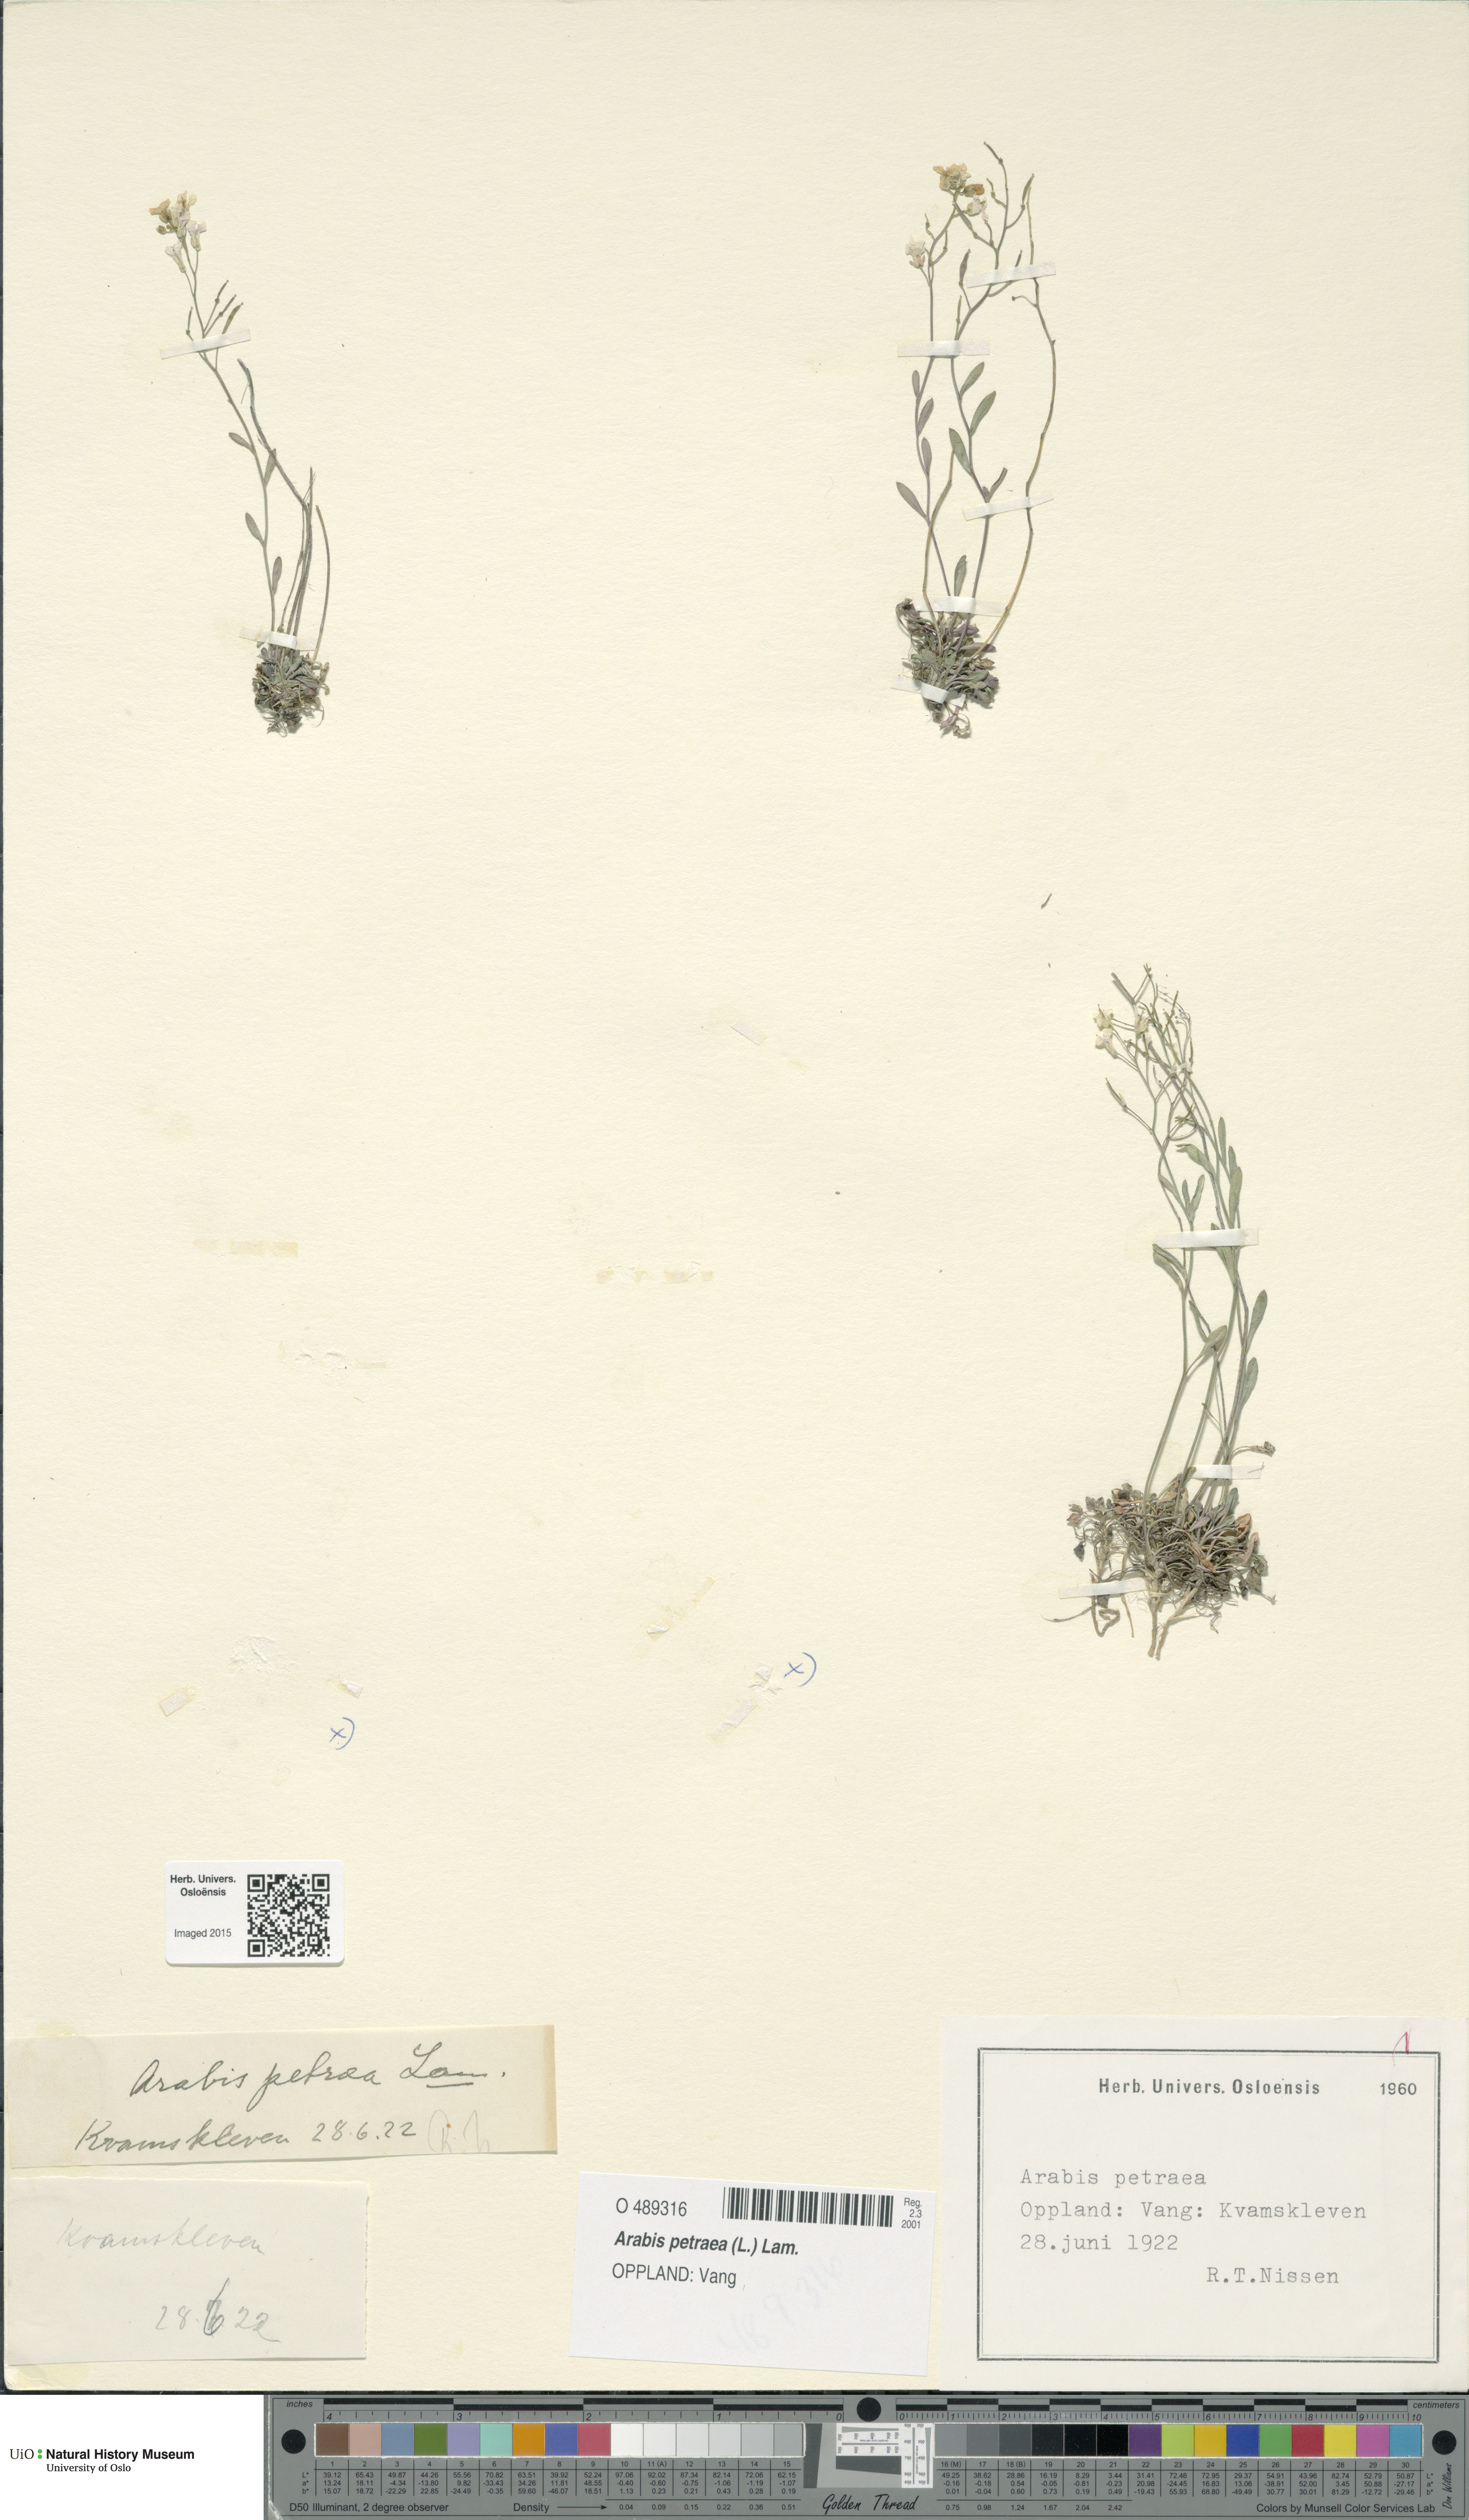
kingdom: Plantae
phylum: Tracheophyta
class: Magnoliopsida
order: Brassicales
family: Brassicaceae
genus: Arabidopsis
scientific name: Arabidopsis petraea
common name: Northern rock-cress
